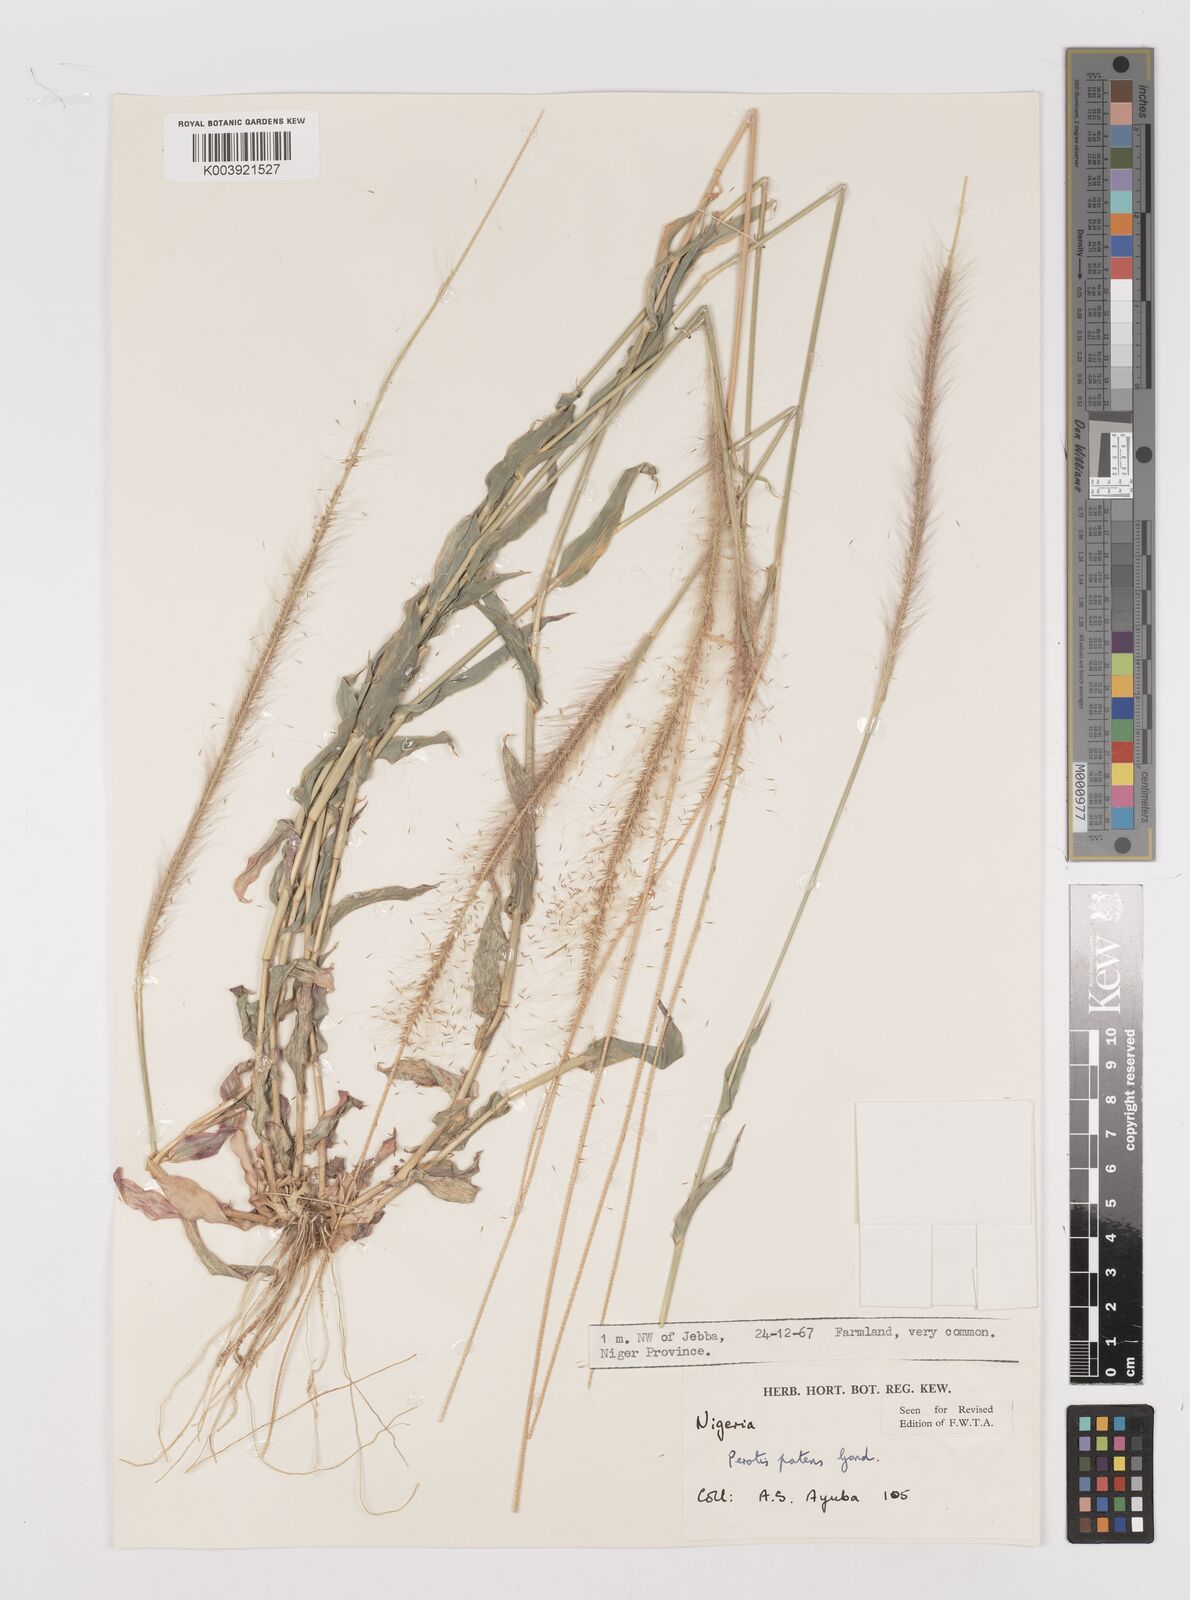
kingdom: Plantae
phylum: Tracheophyta
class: Liliopsida
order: Poales
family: Poaceae
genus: Perotis
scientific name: Perotis patens
